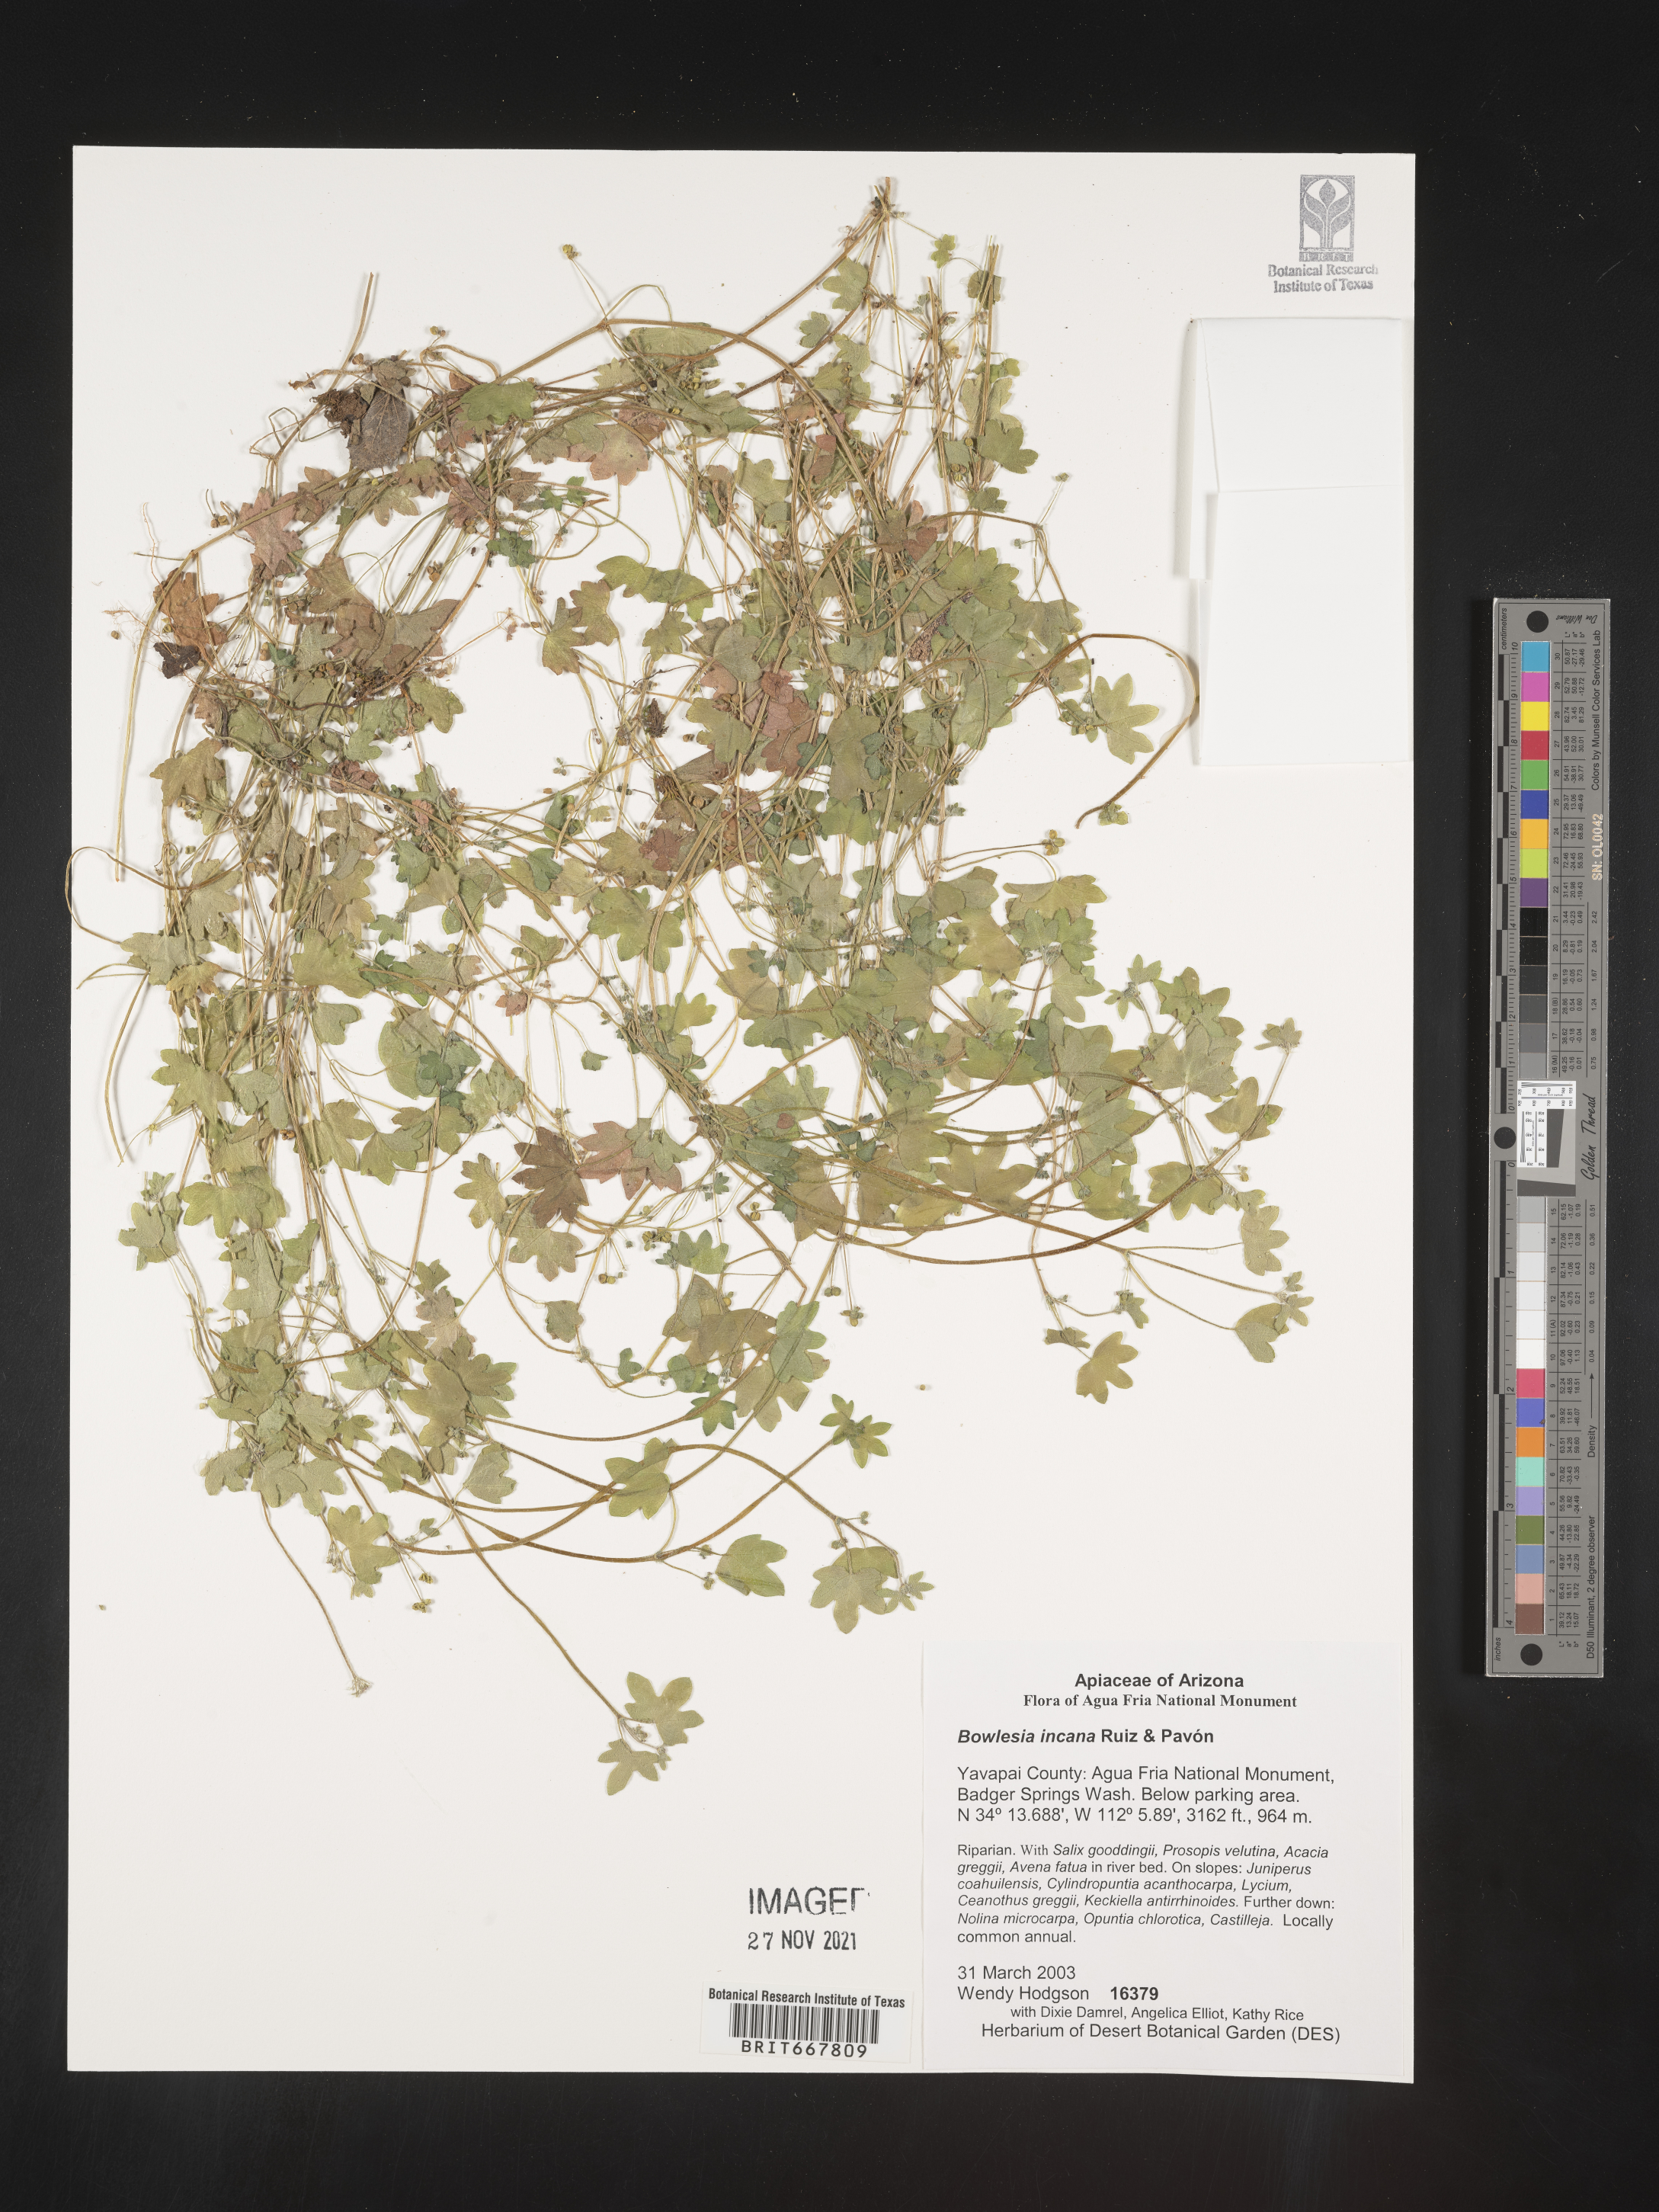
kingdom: Plantae
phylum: Tracheophyta
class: Magnoliopsida
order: Apiales
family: Apiaceae
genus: Bowlesia
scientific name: Bowlesia
